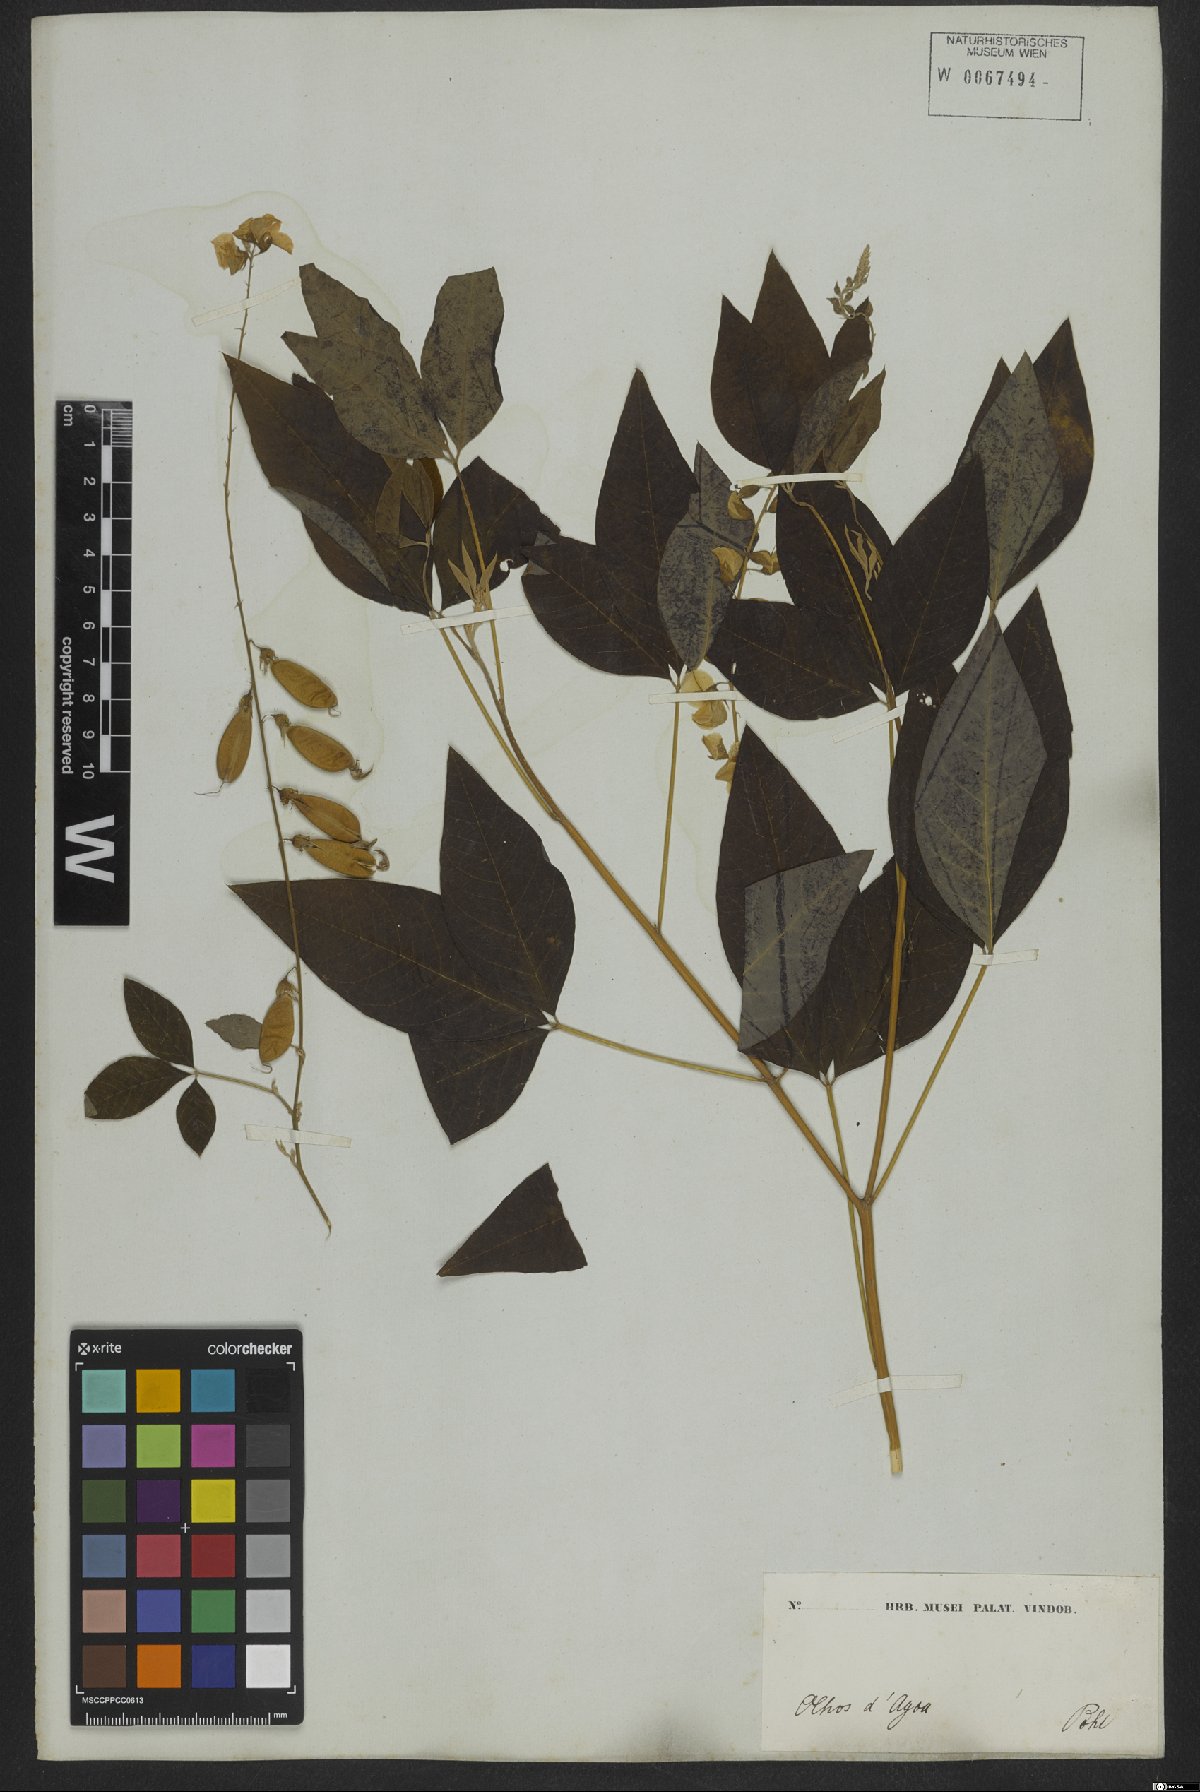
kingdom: Plantae
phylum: Tracheophyta
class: Magnoliopsida
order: Fabales
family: Fabaceae
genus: Crotalaria
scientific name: Crotalaria vitellina
